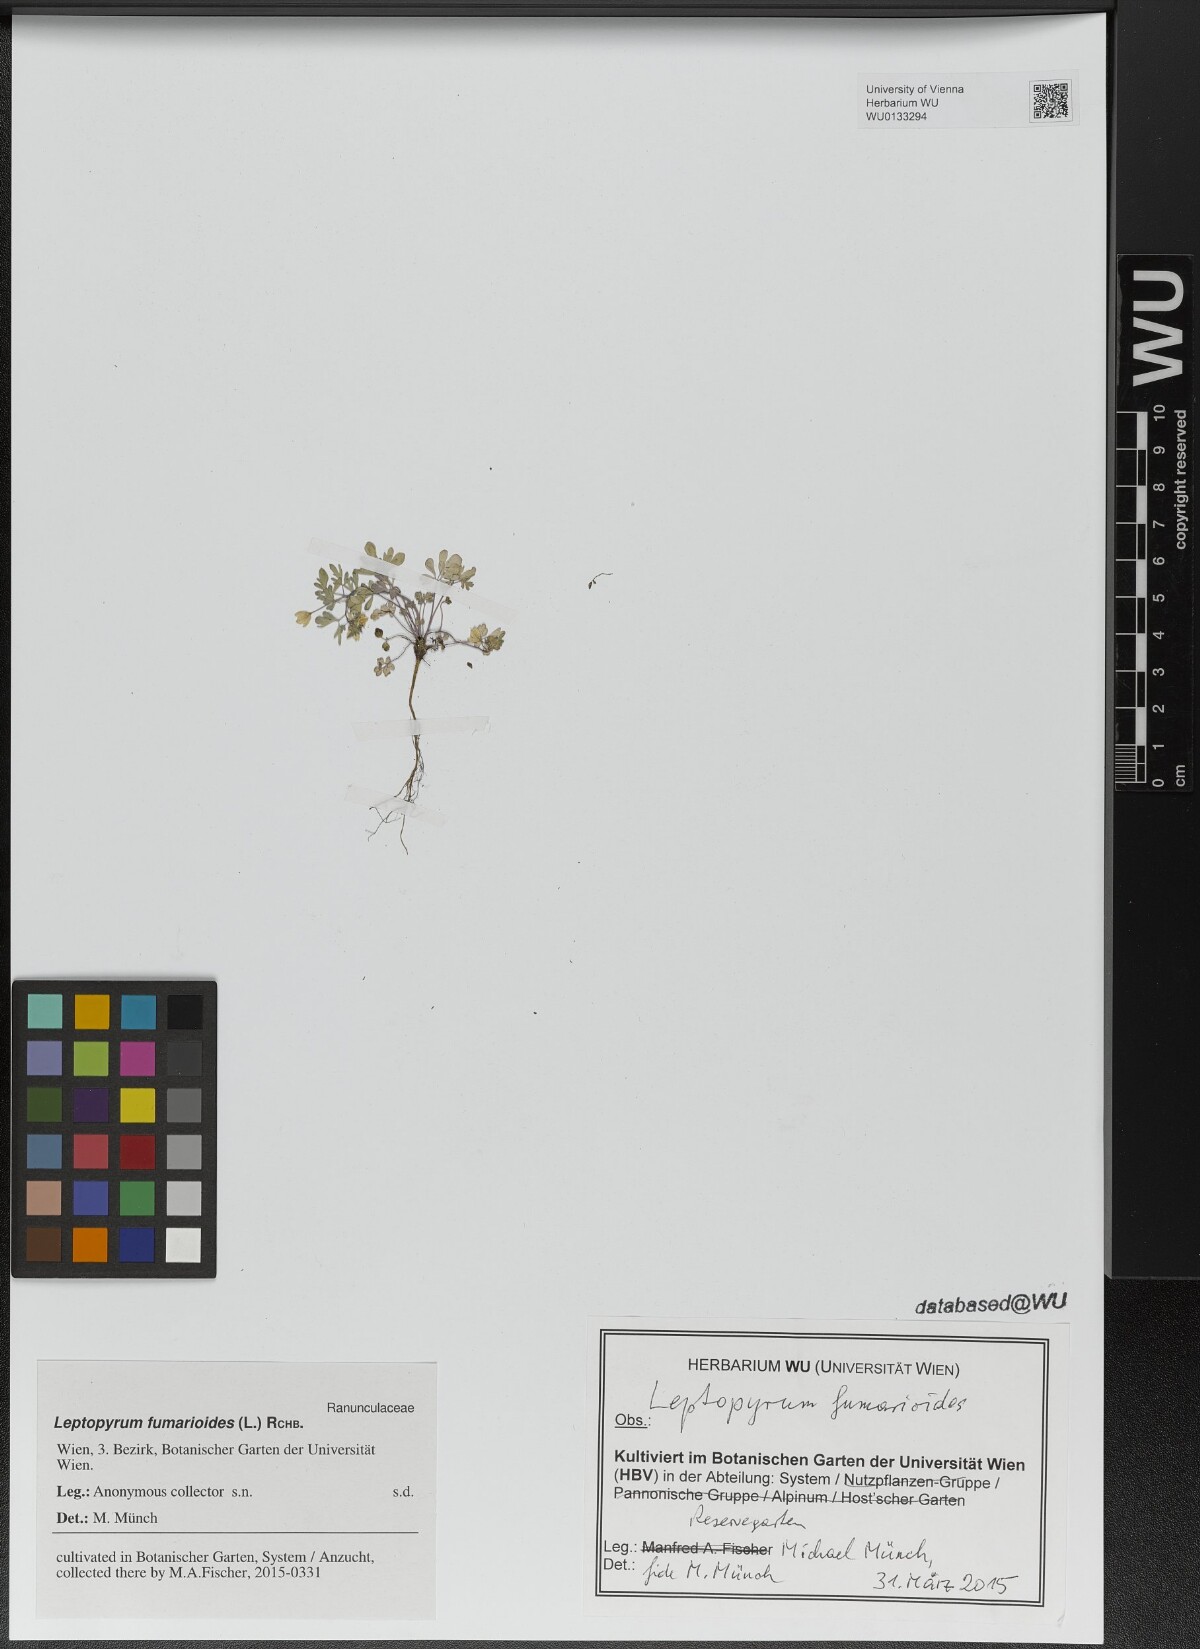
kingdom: Plantae
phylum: Tracheophyta
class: Magnoliopsida
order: Ranunculales
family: Ranunculaceae
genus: Leptopyrum
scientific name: Leptopyrum fumarioides
